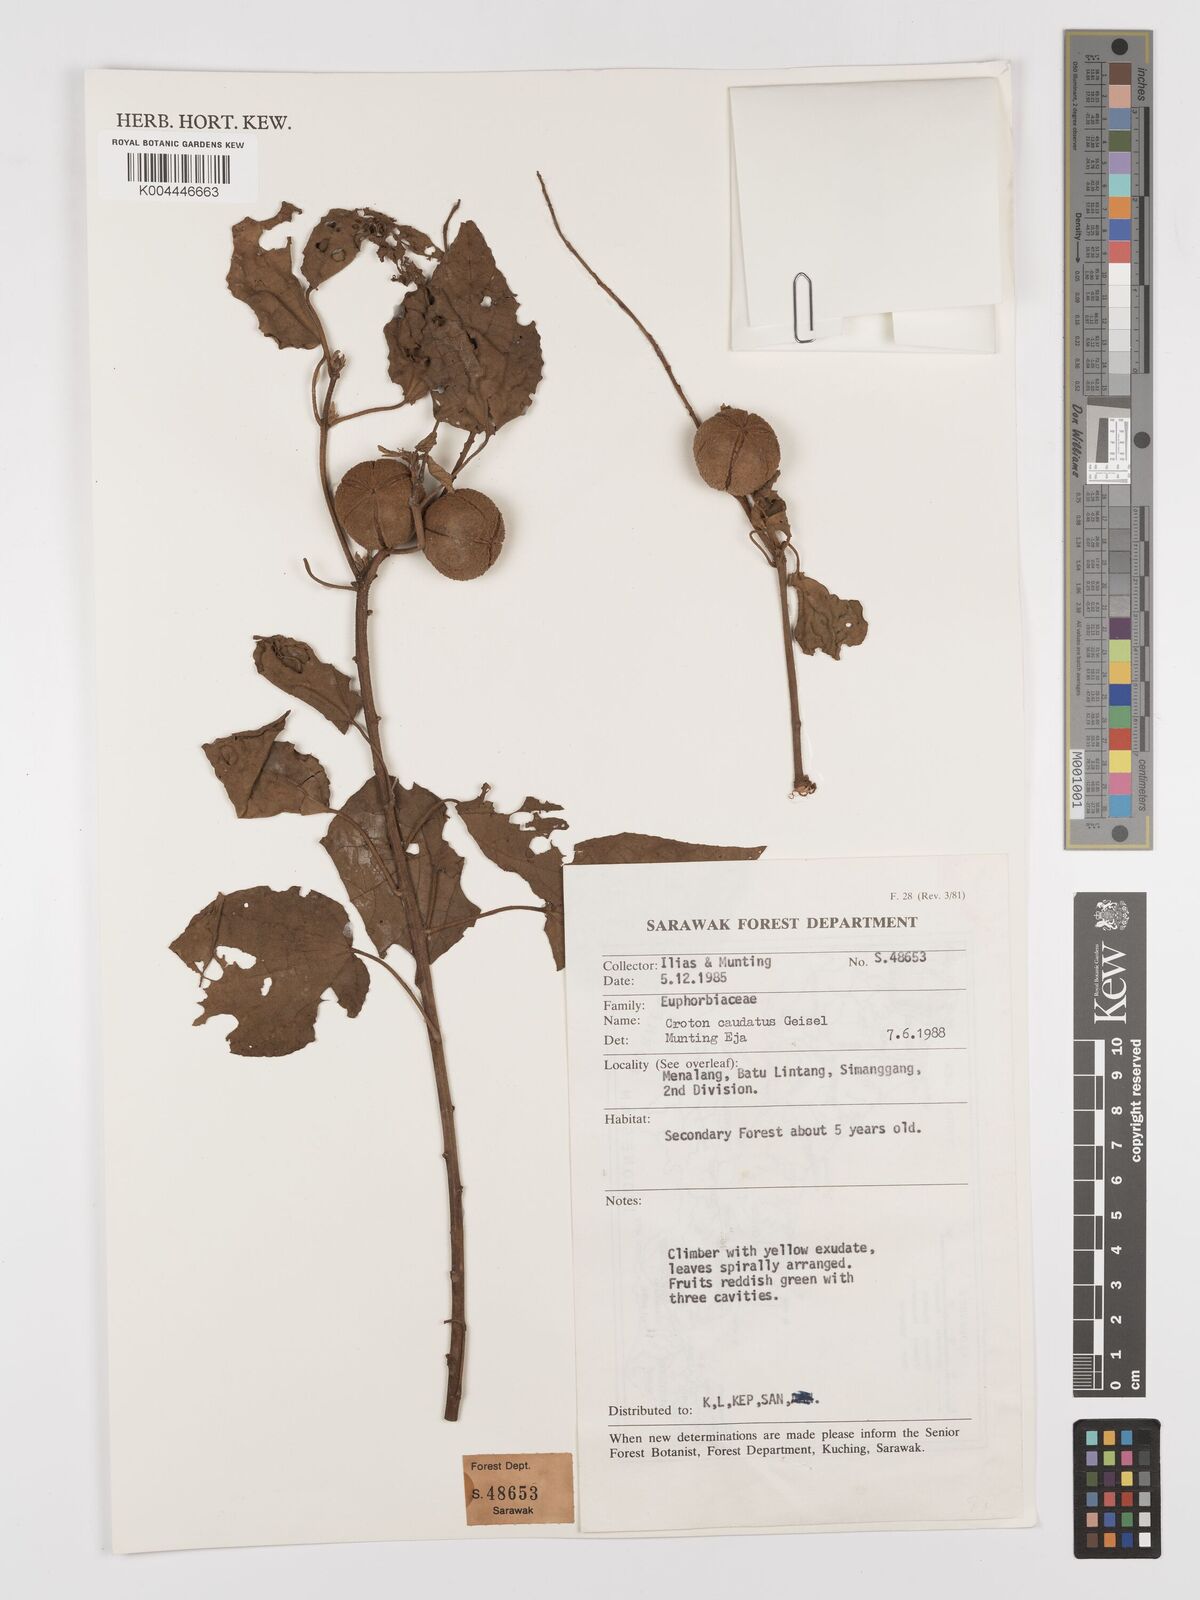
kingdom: Plantae
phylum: Tracheophyta
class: Magnoliopsida
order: Malpighiales
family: Euphorbiaceae
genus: Croton
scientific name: Croton caudatus
